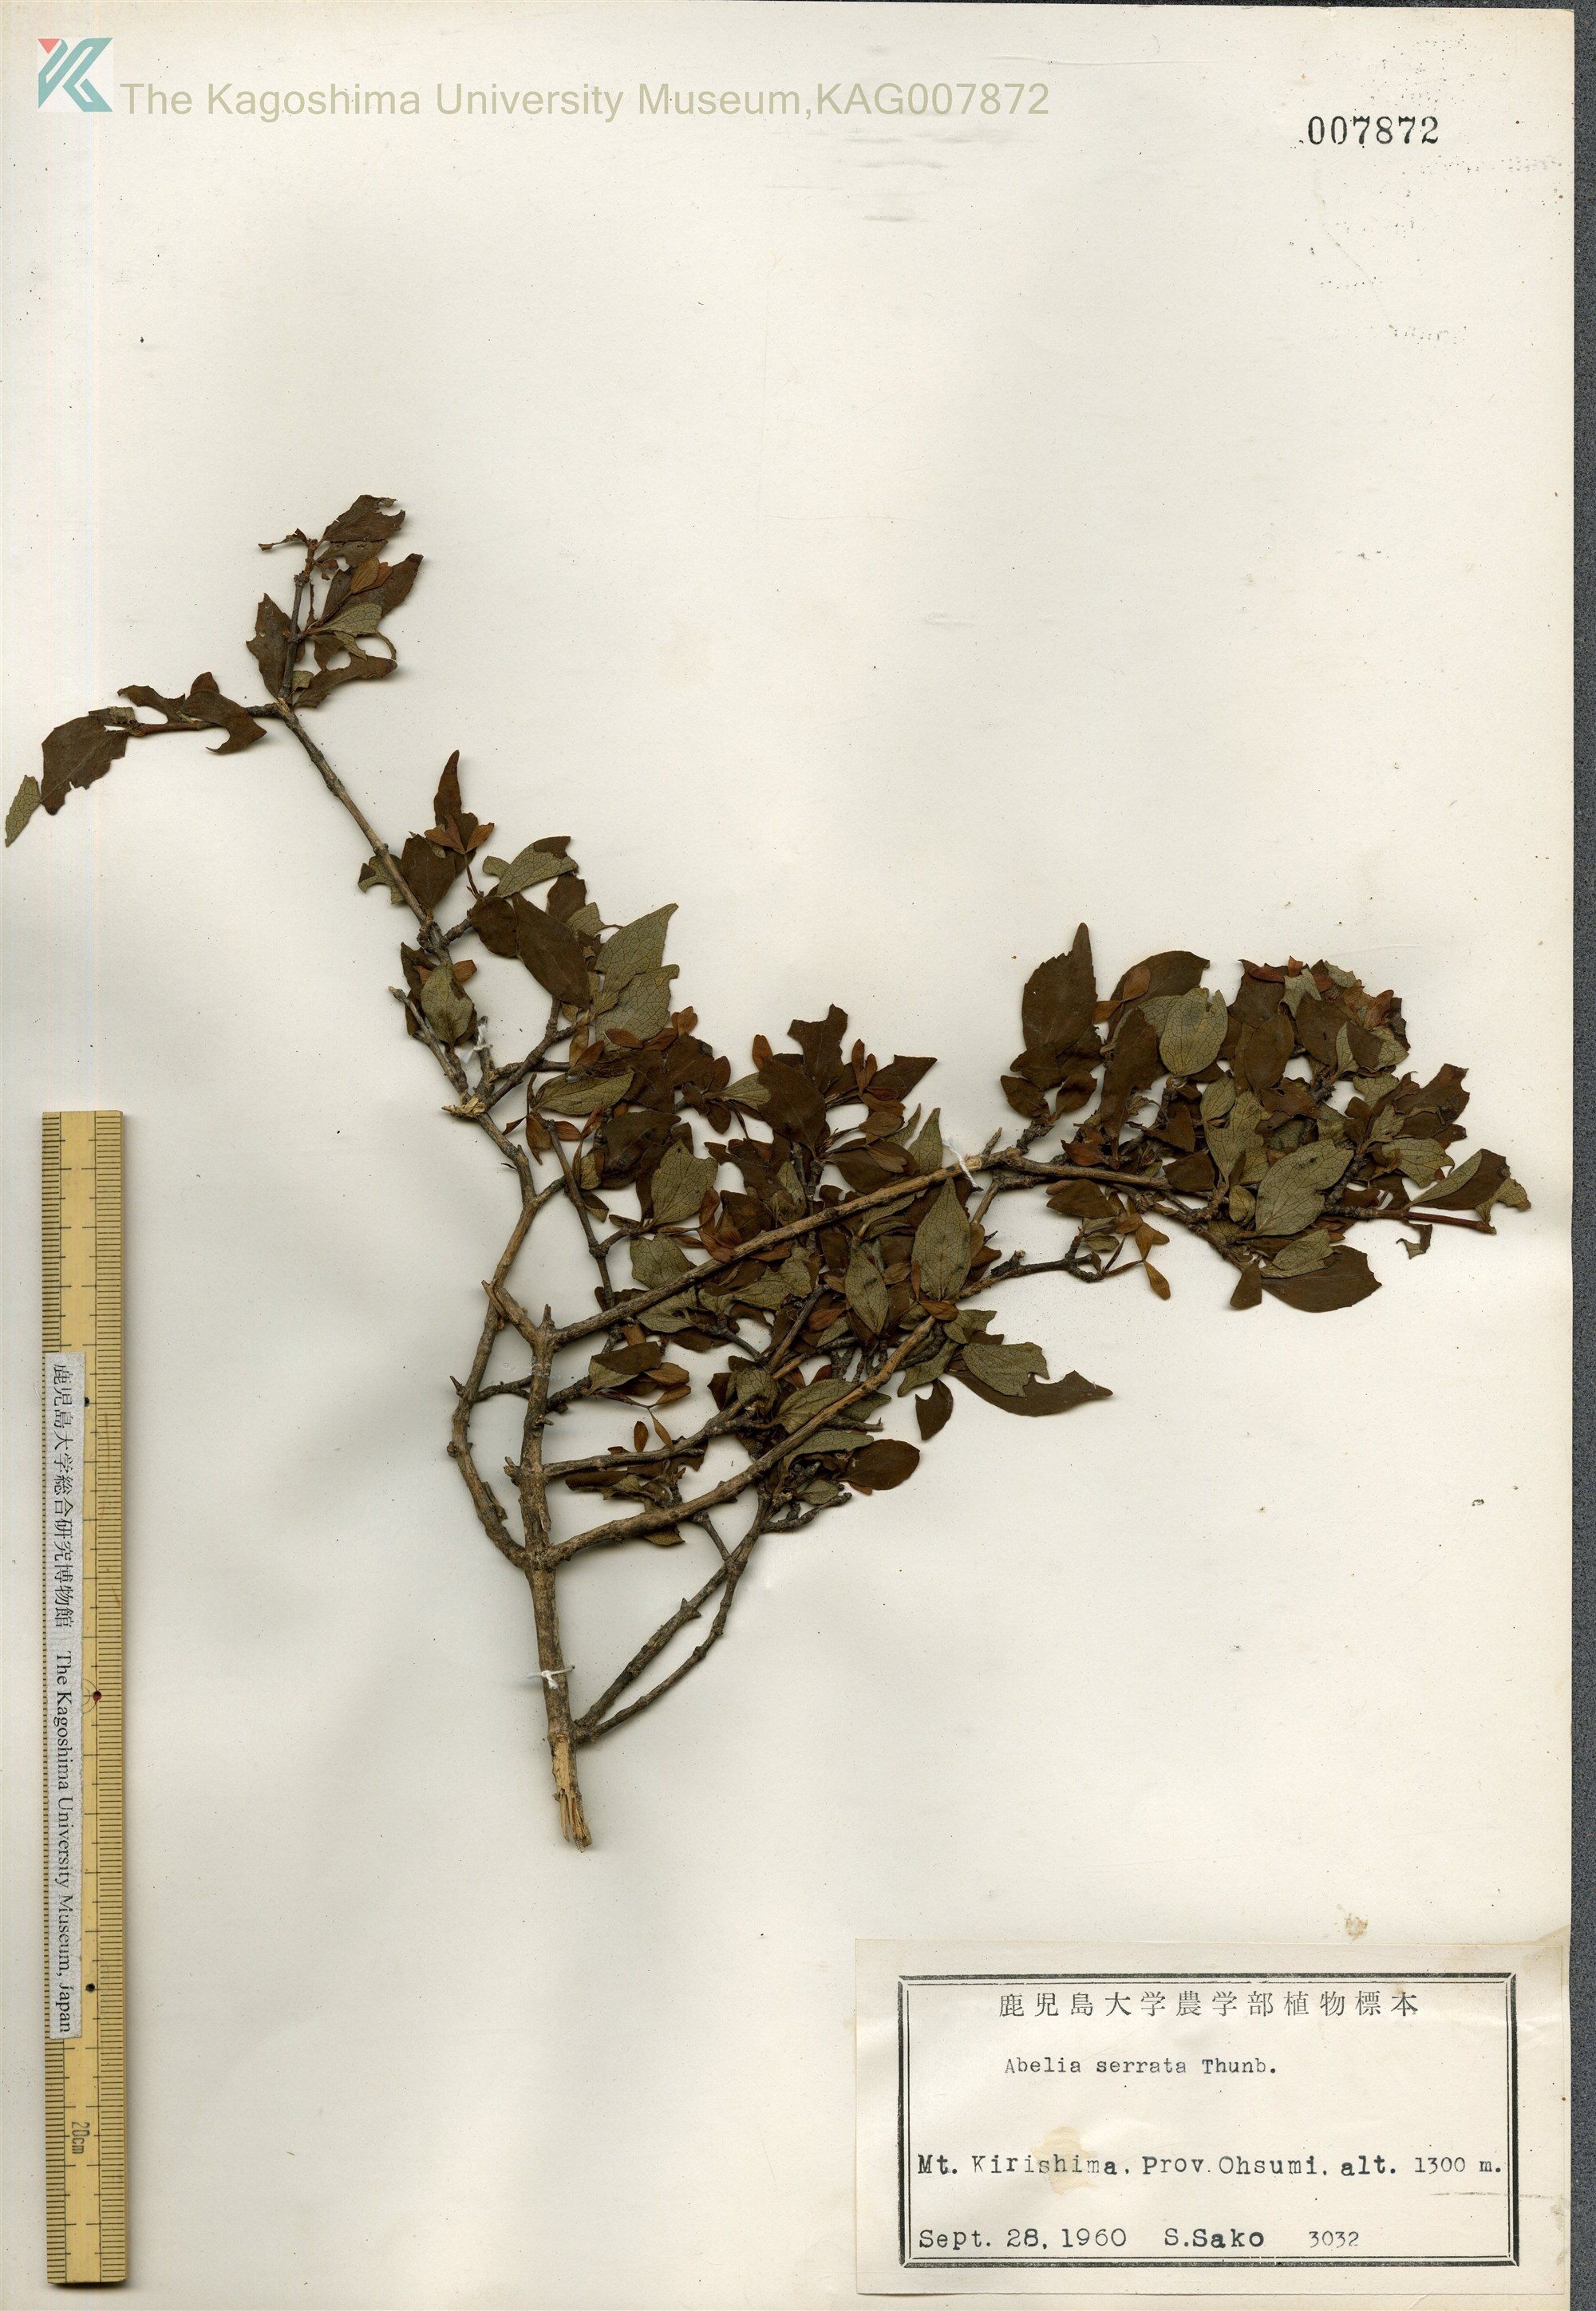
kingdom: Plantae
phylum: Tracheophyta
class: Magnoliopsida
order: Dipsacales
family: Caprifoliaceae
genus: Diabelia
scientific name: Diabelia serrata
